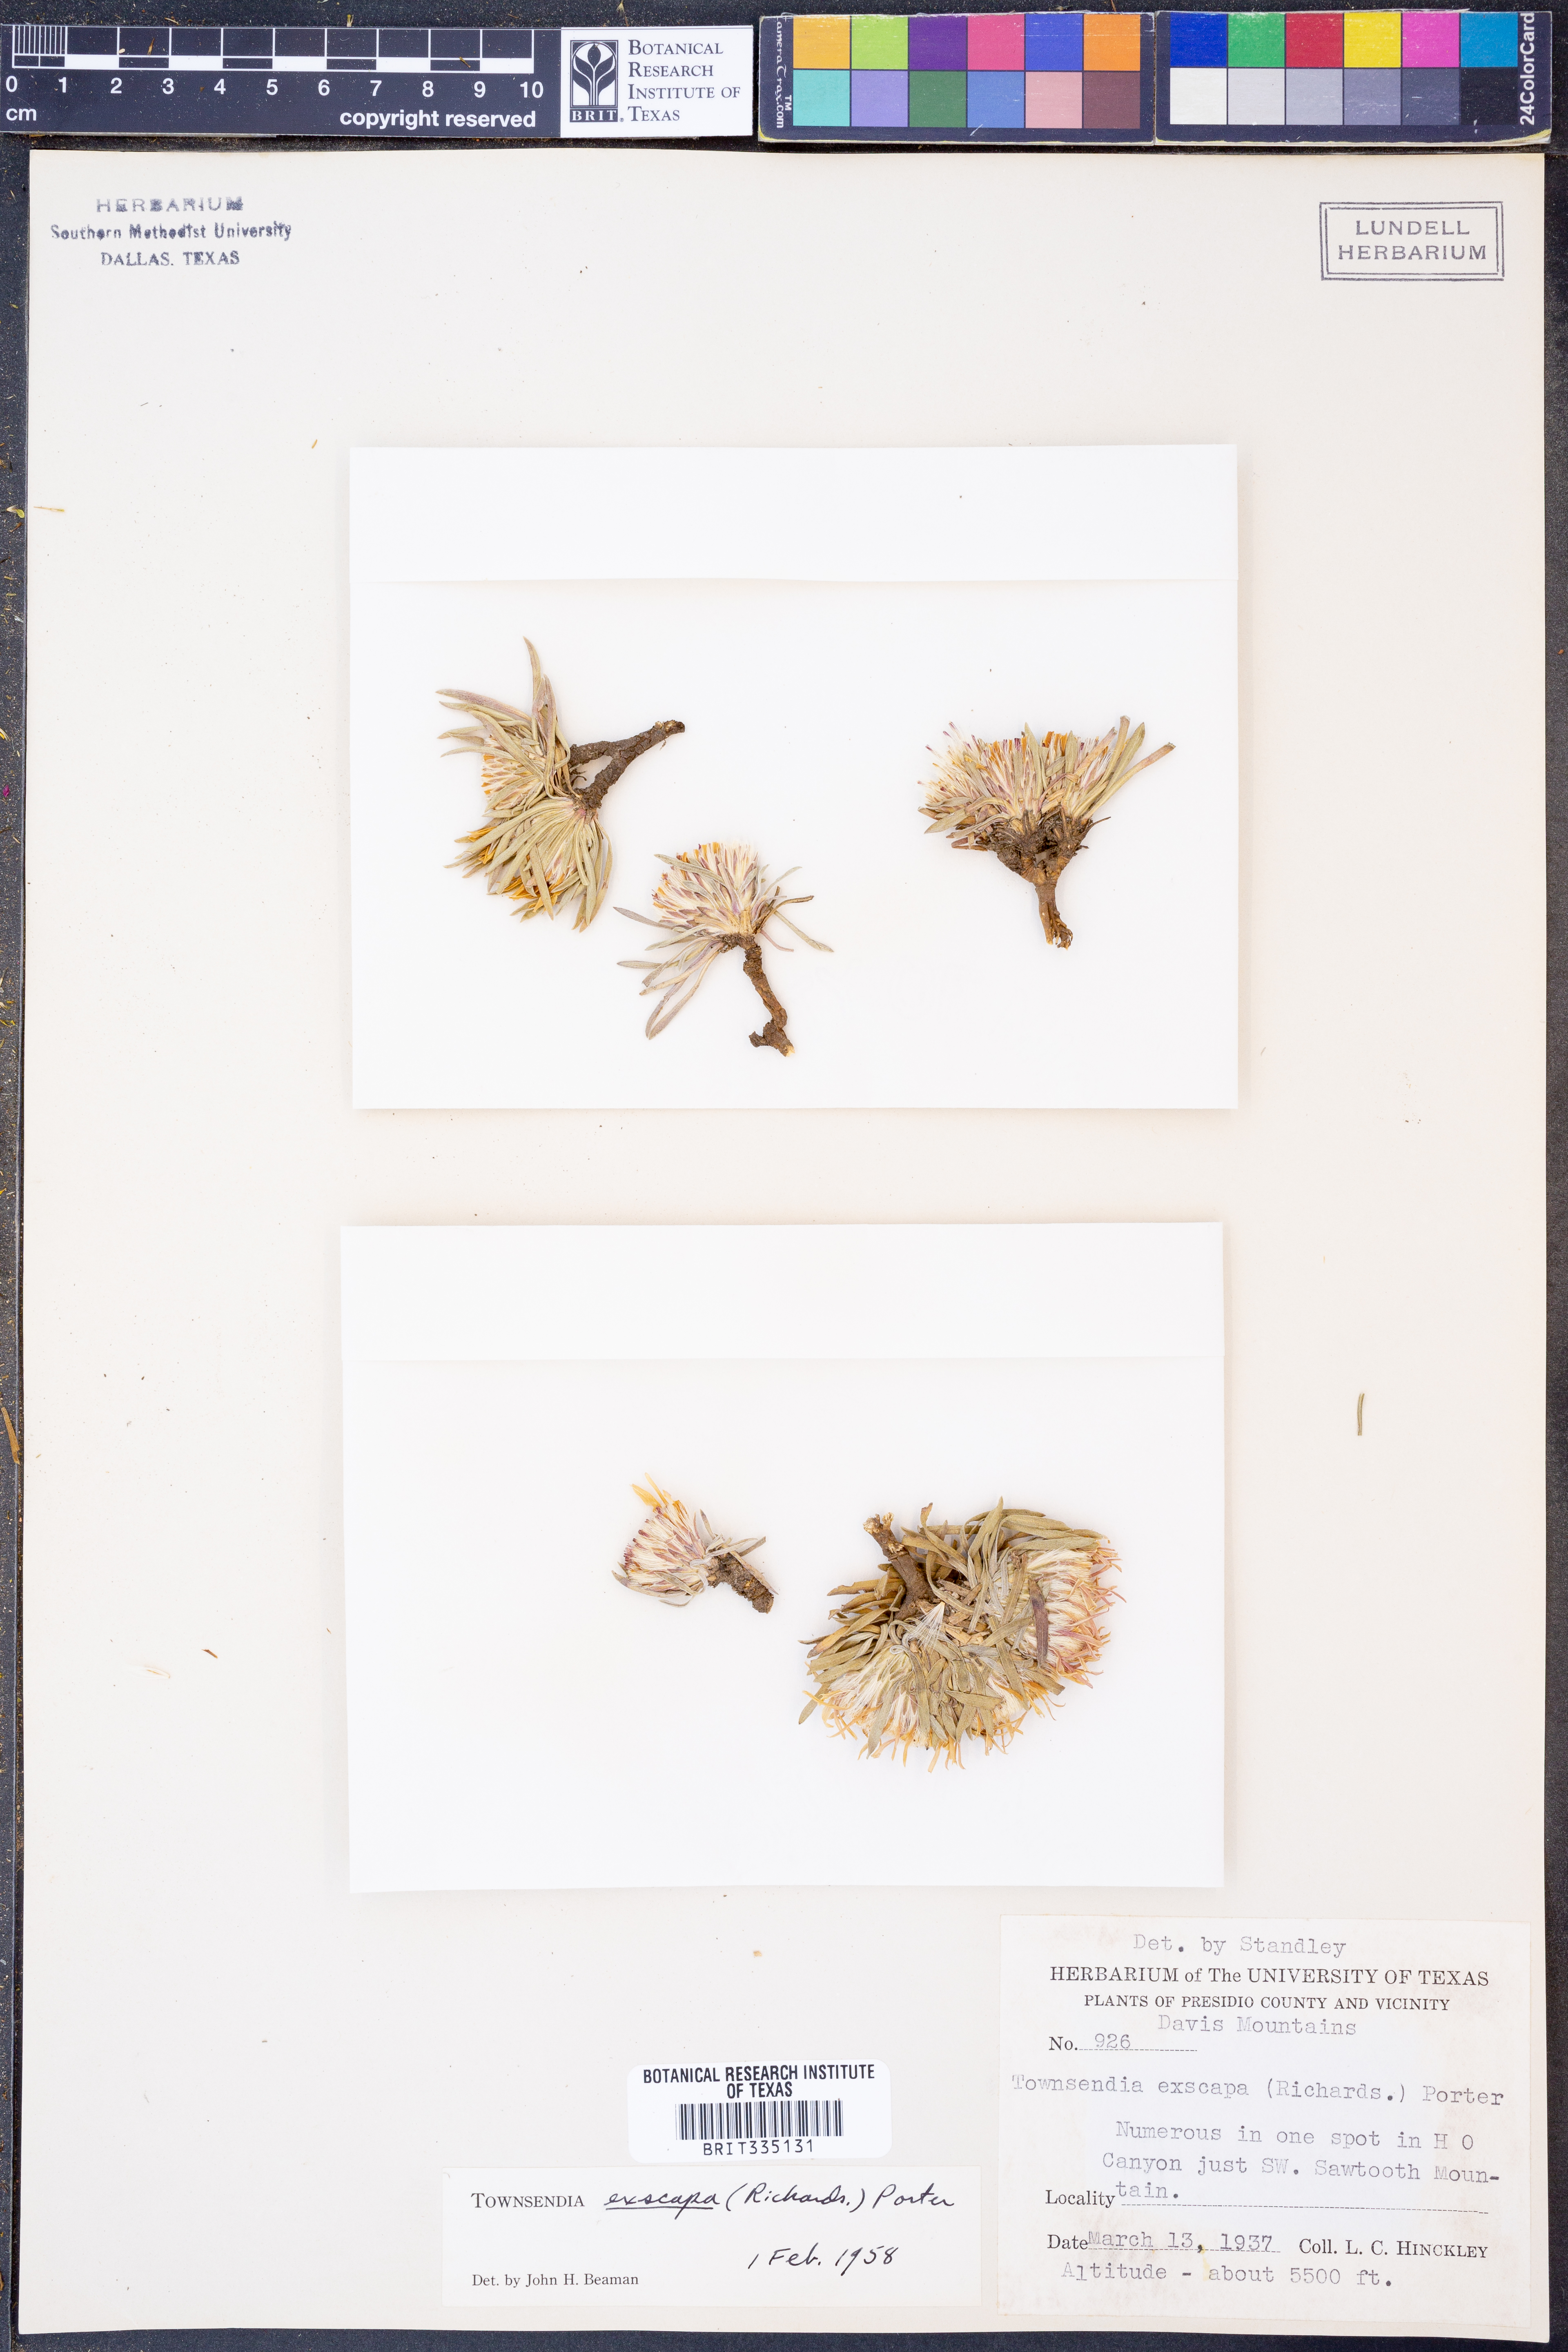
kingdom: Plantae
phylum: Tracheophyta
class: Magnoliopsida
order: Asterales
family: Asteraceae
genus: Townsendia
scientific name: Townsendia exscapa
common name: Dwarf townsendia
